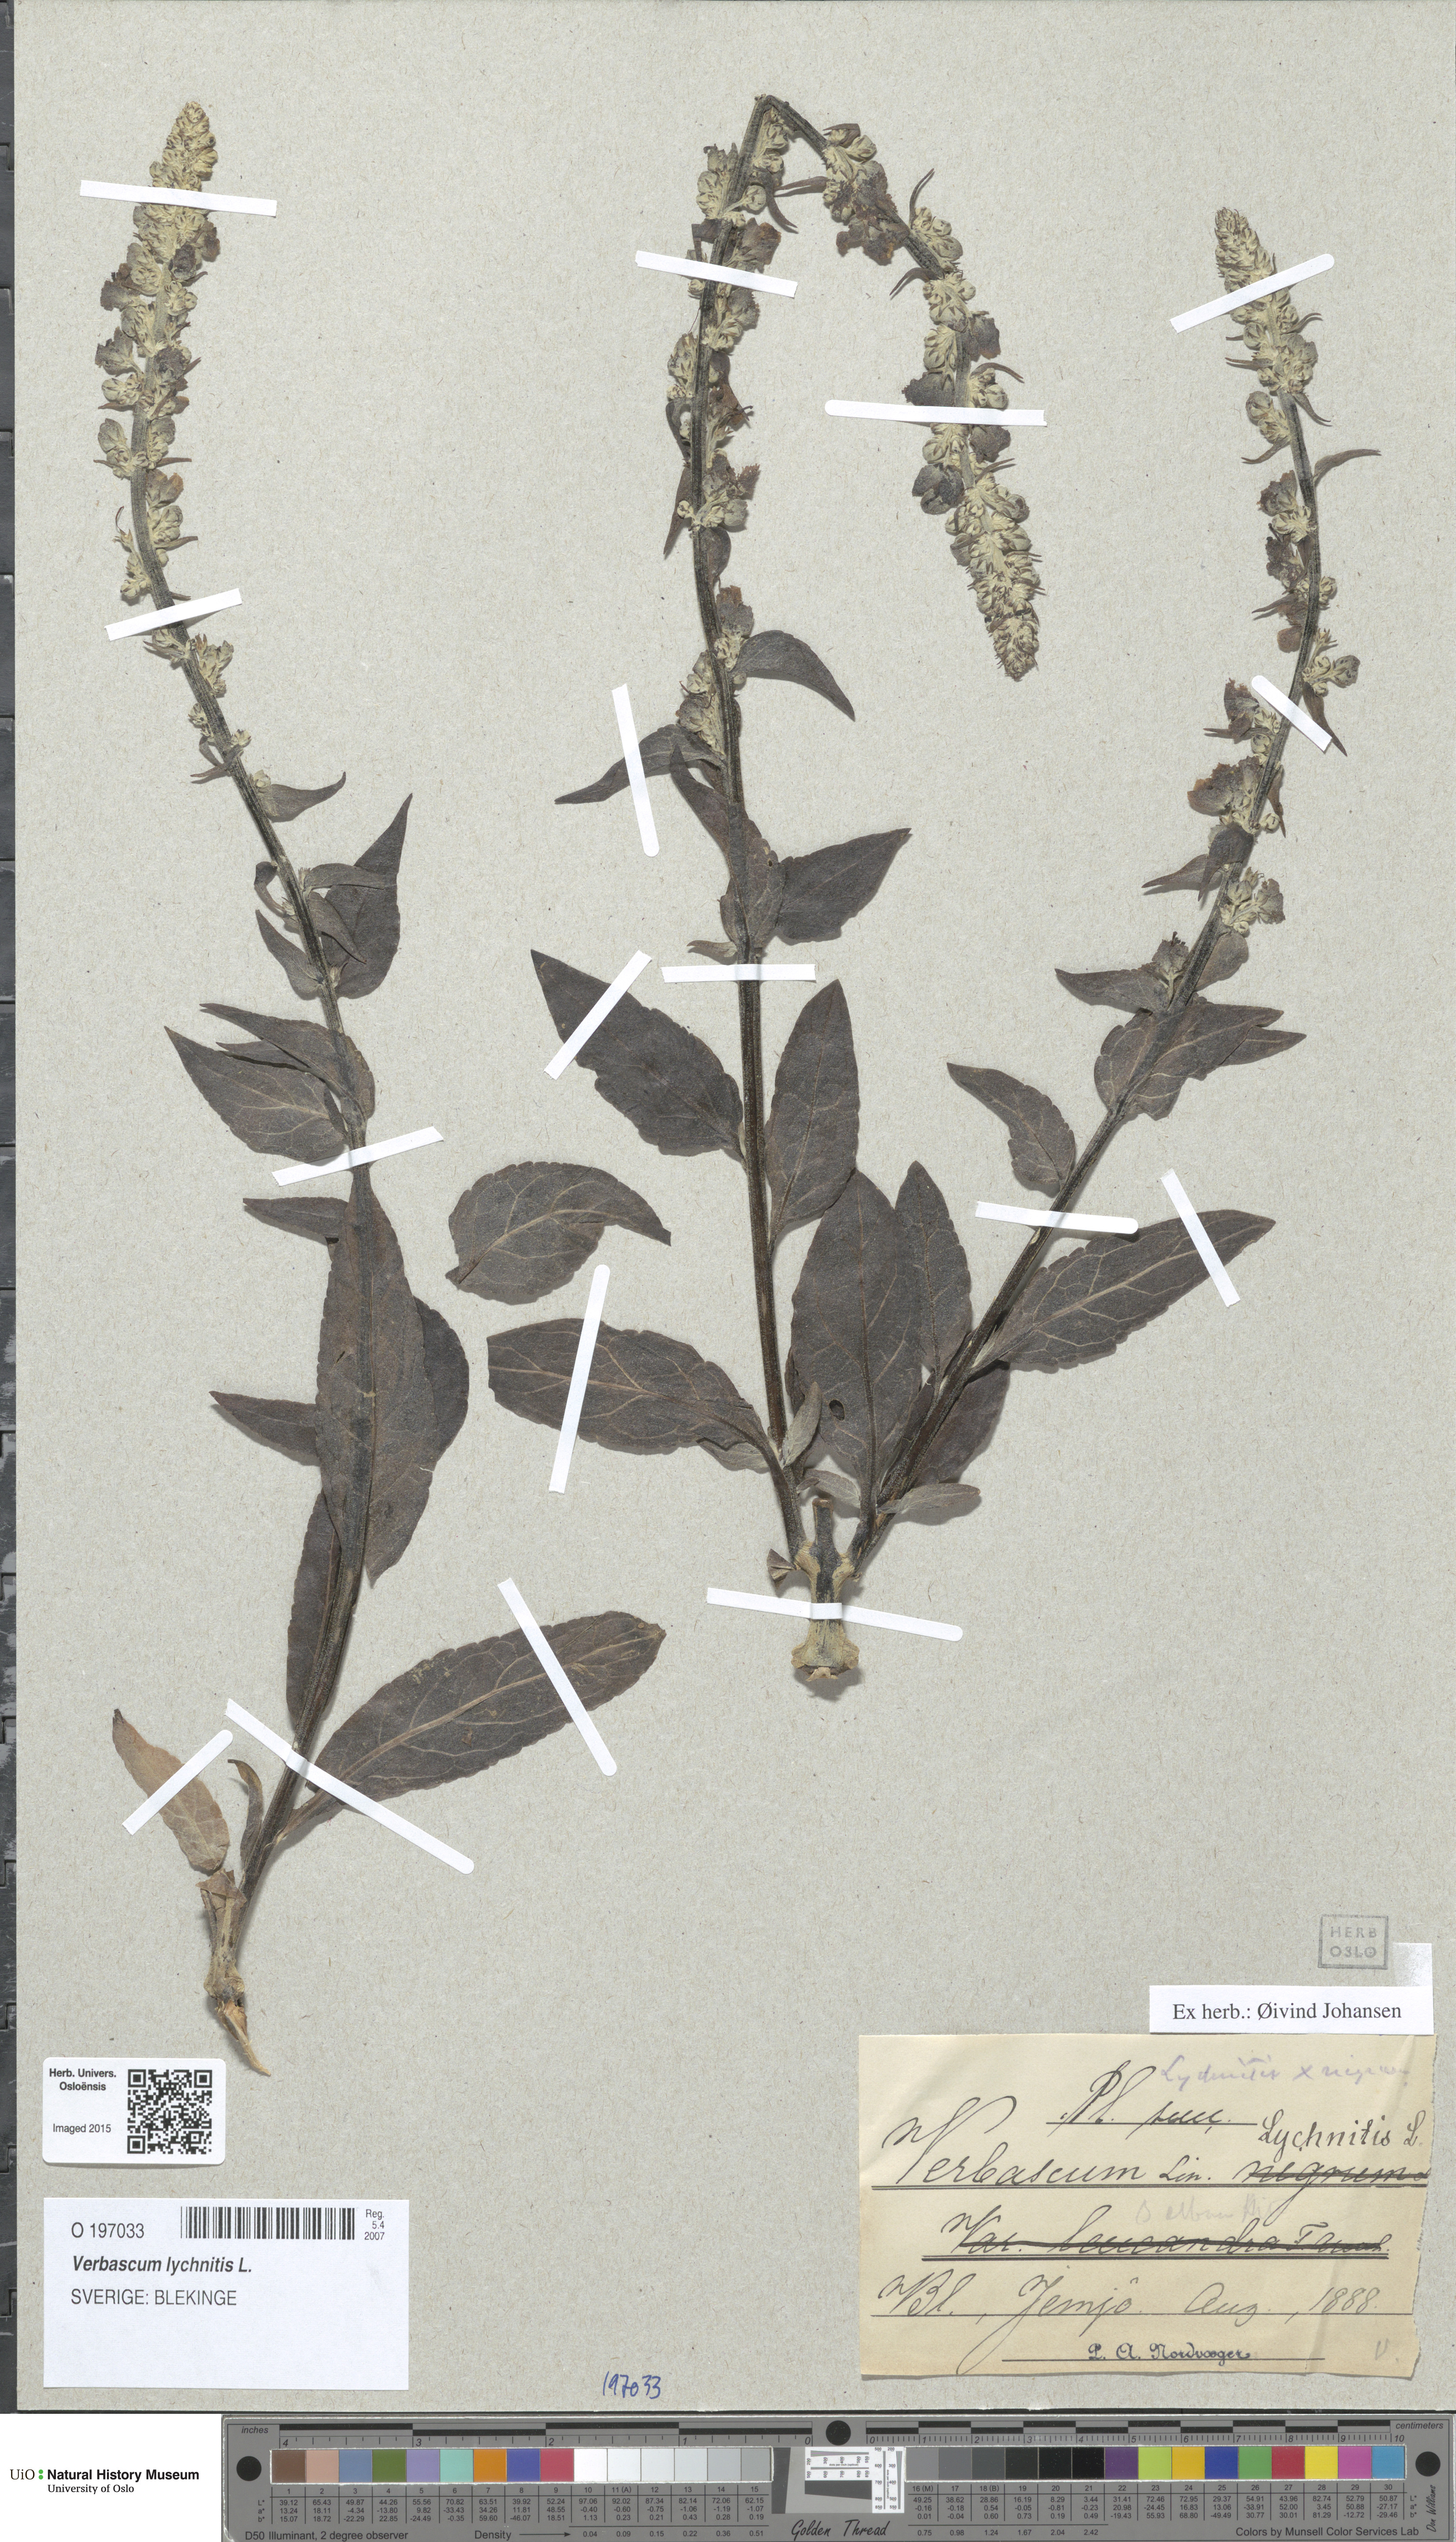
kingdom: Plantae
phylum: Tracheophyta
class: Magnoliopsida
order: Lamiales
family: Scrophulariaceae
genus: Verbascum
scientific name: Verbascum lychnitis
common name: White mullein
